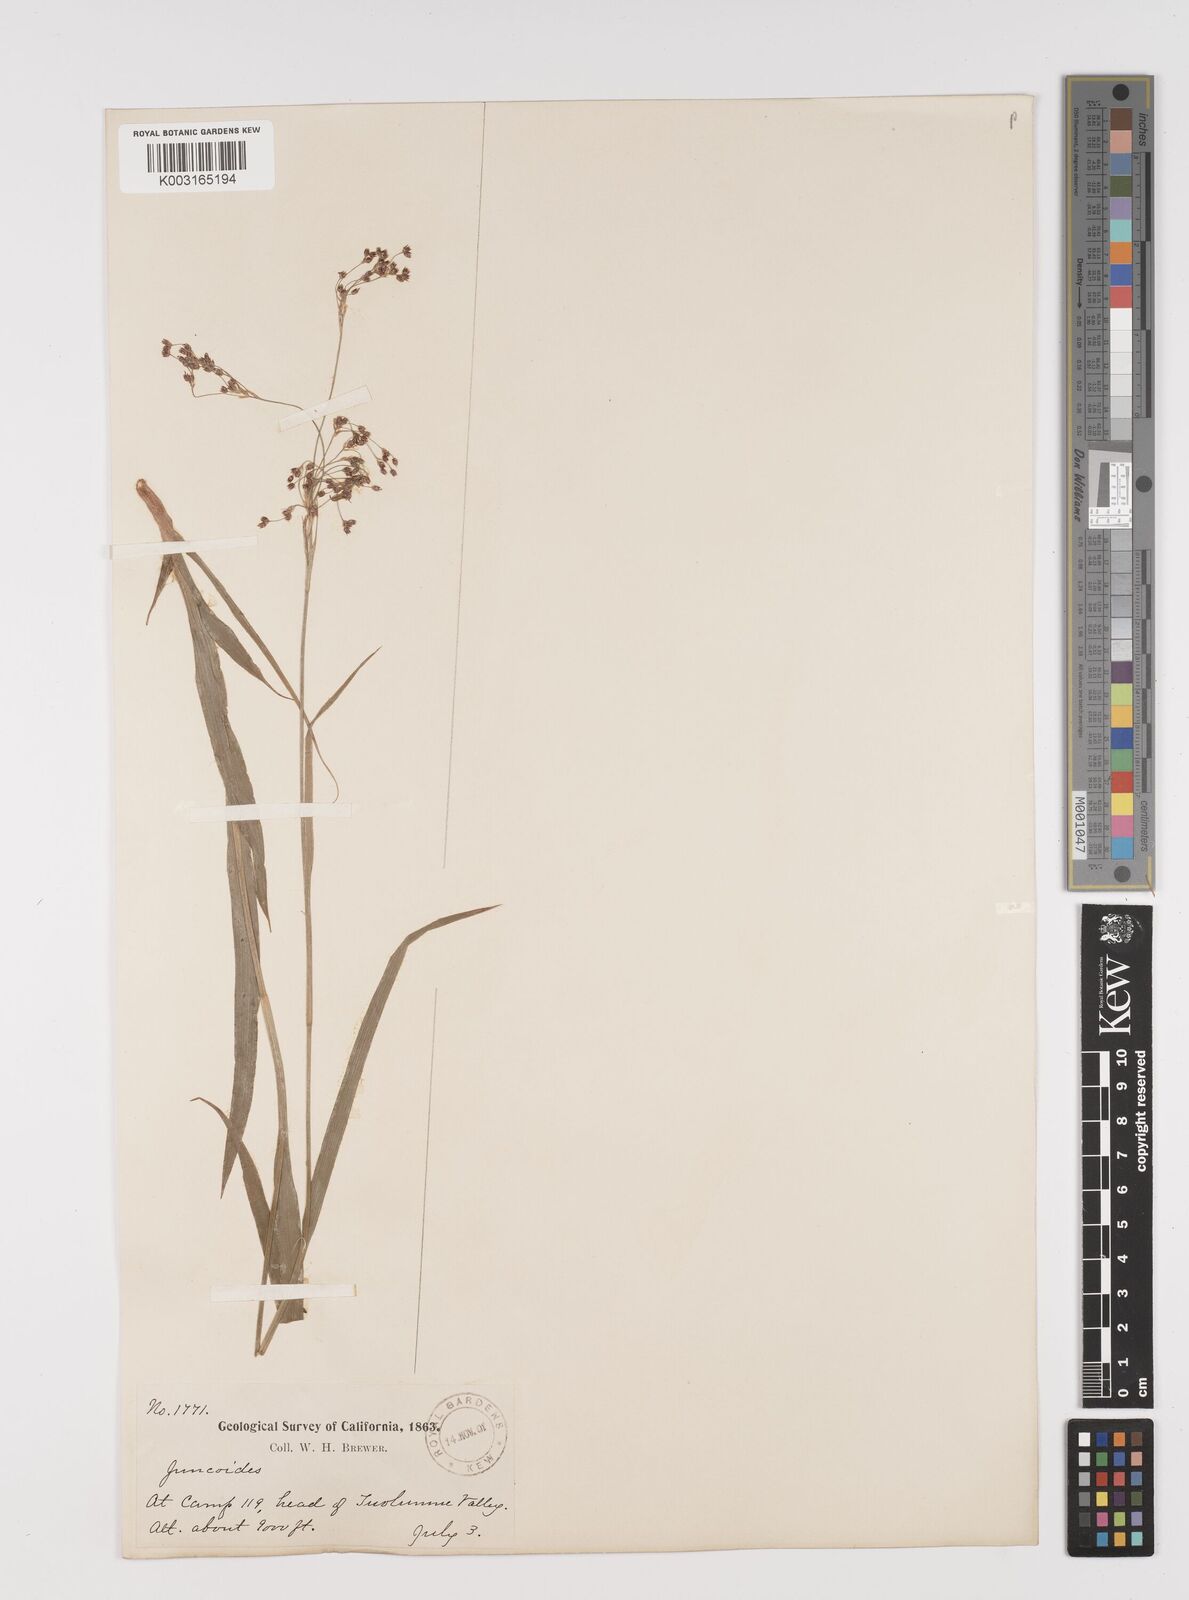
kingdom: Plantae
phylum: Tracheophyta
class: Liliopsida
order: Poales
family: Juncaceae
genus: Luzula
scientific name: Luzula
